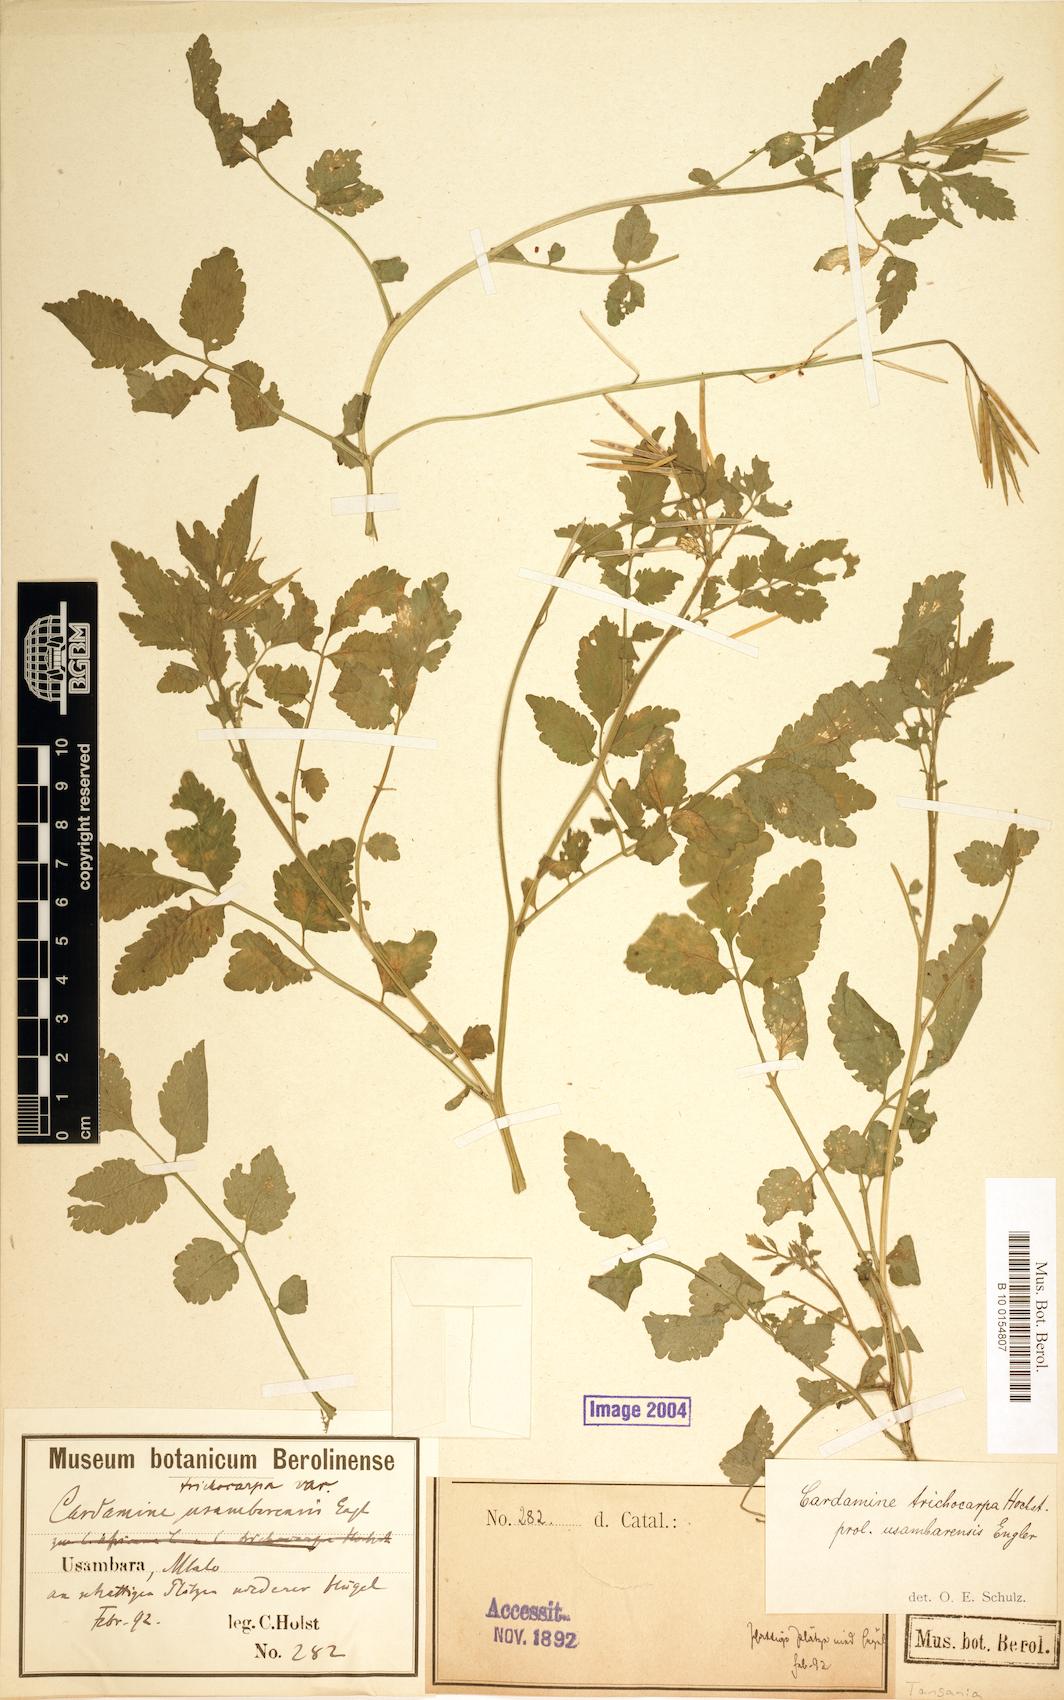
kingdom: Plantae
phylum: Tracheophyta
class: Magnoliopsida
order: Brassicales
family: Brassicaceae
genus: Cardamine
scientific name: Cardamine trichocarpa
